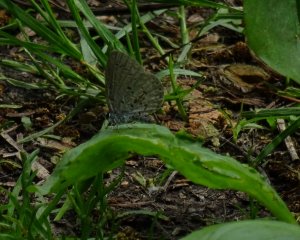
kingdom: Animalia
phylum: Arthropoda
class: Insecta
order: Lepidoptera
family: Lycaenidae
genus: Celastrina
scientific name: Celastrina lucia
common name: Northern Spring Azure
